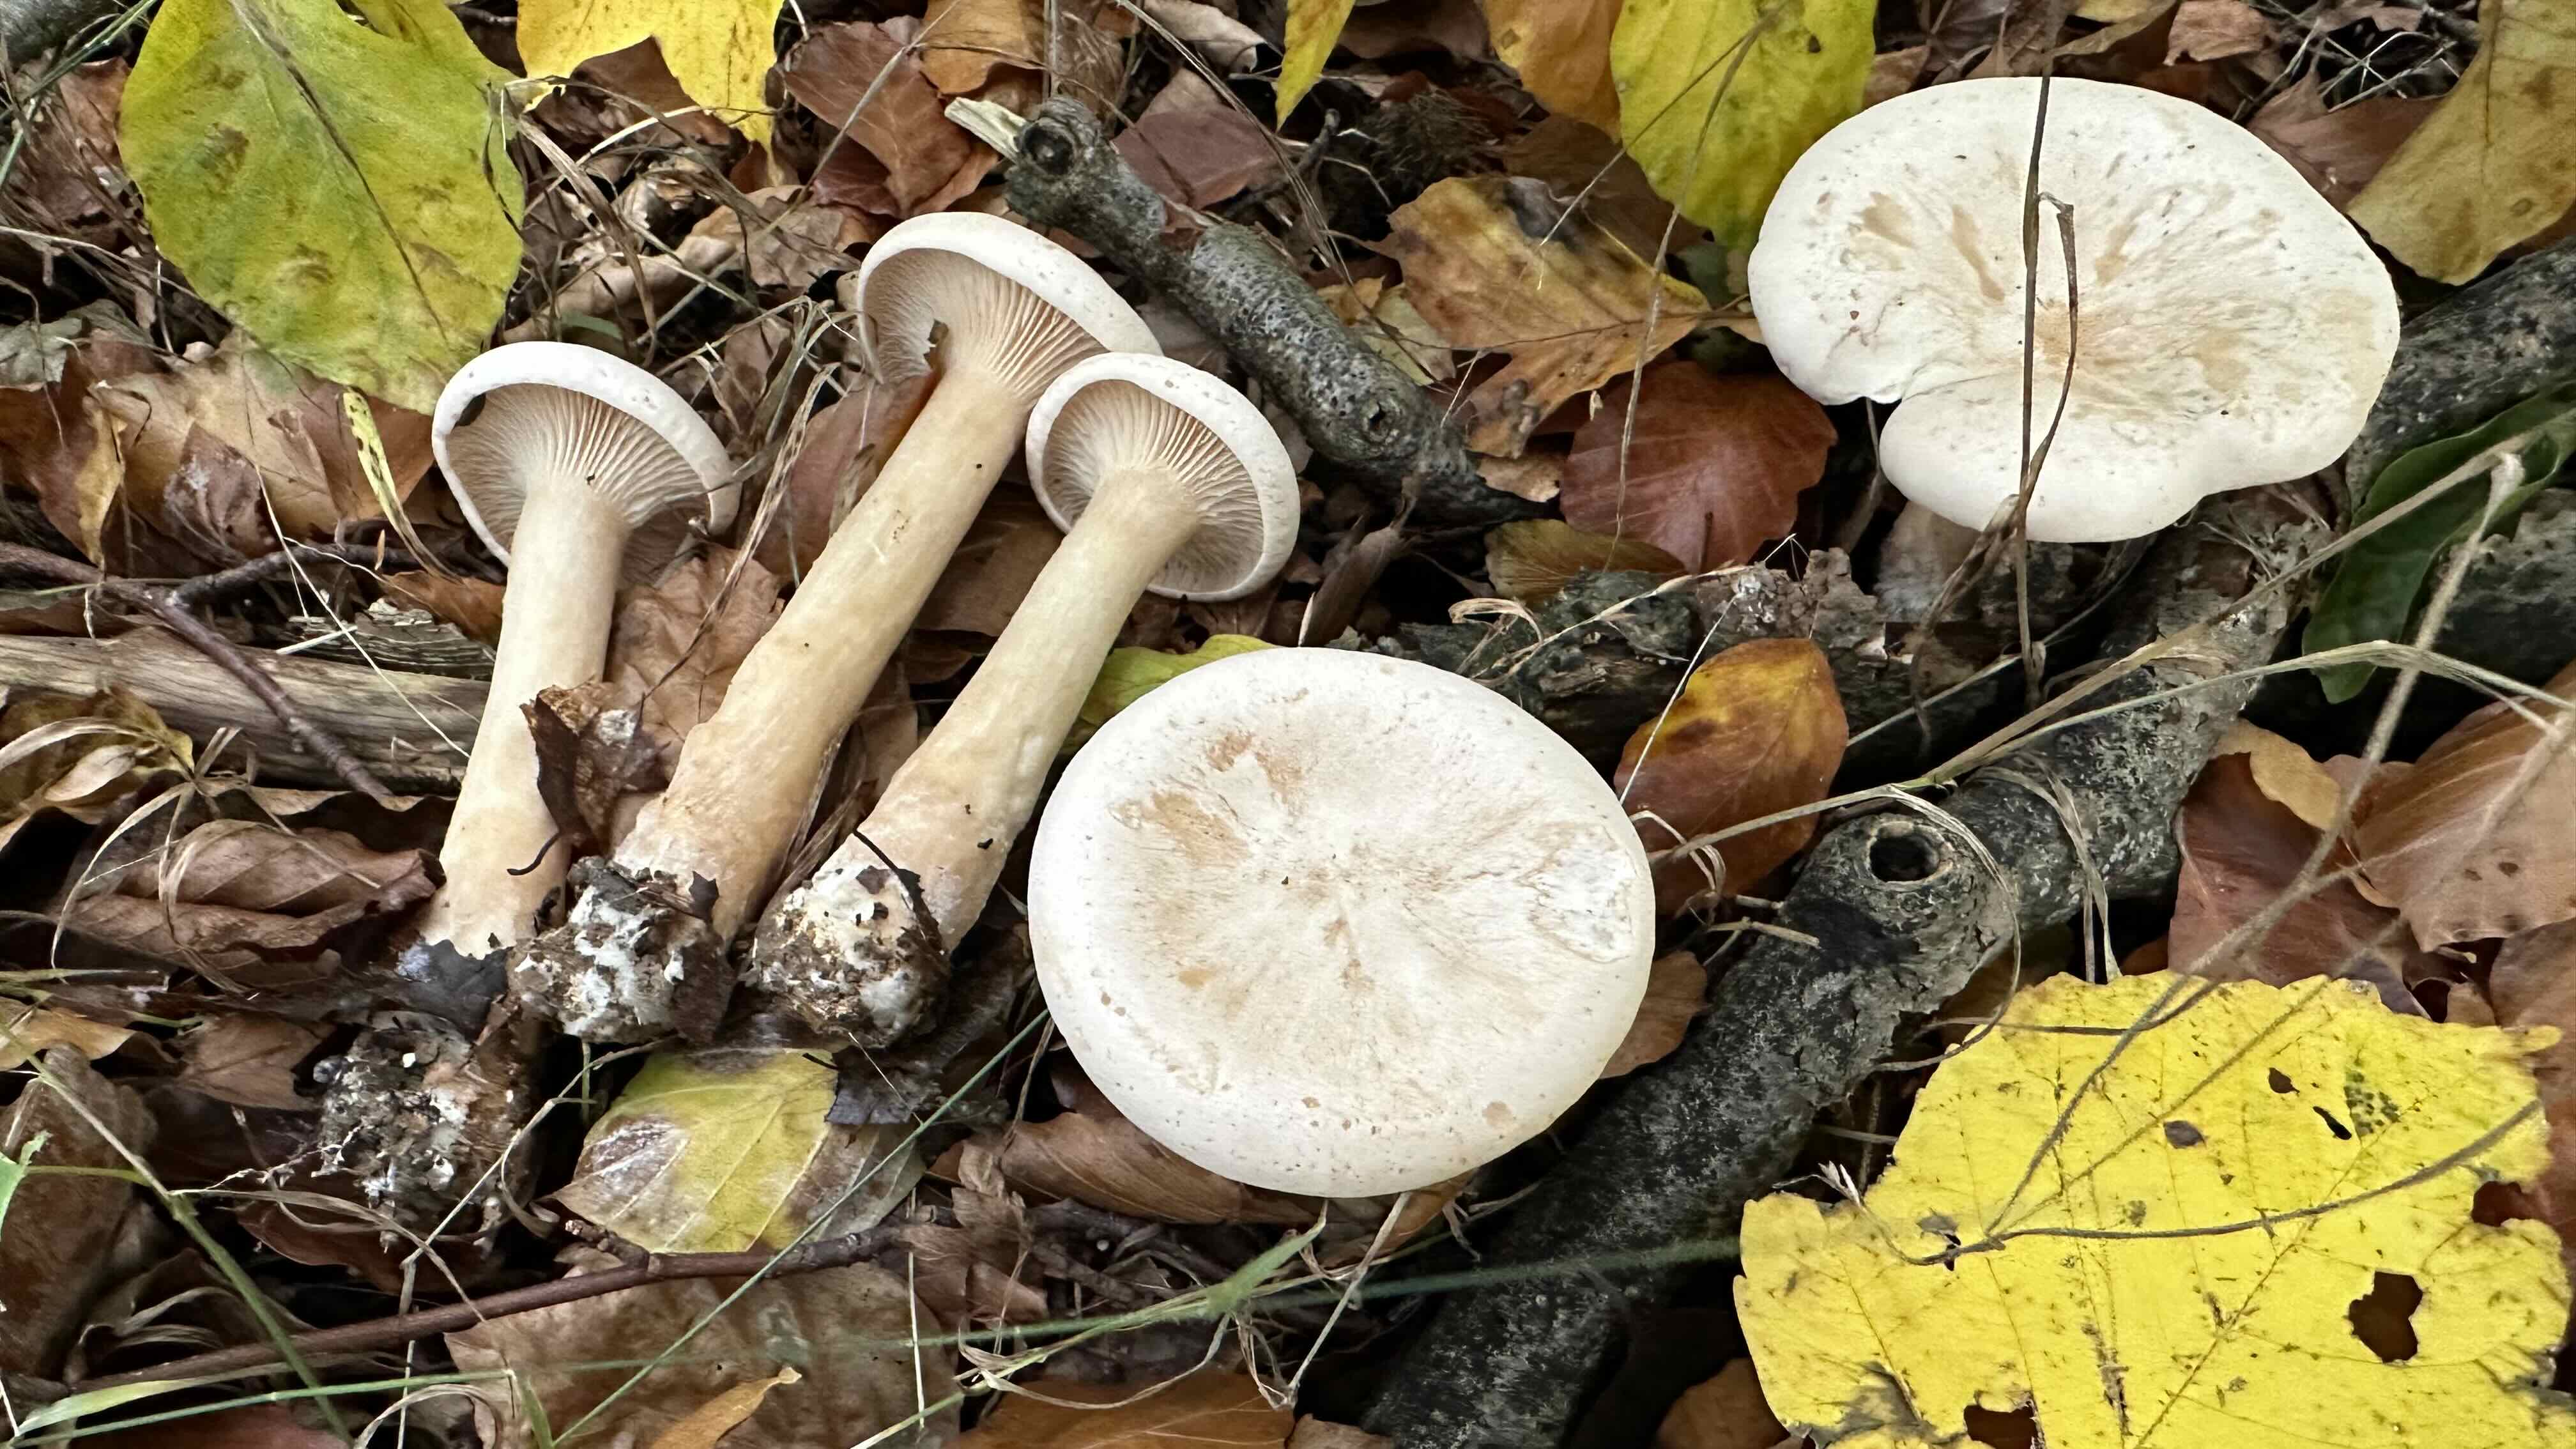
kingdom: Fungi
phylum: Basidiomycota
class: Agaricomycetes
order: Agaricales
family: Tricholomataceae
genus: Infundibulicybe
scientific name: Infundibulicybe geotropa
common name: stor tragthat
